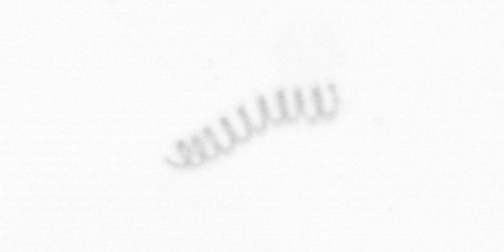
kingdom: Chromista
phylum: Ochrophyta
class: Bacillariophyceae
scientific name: Bacillariophyceae
